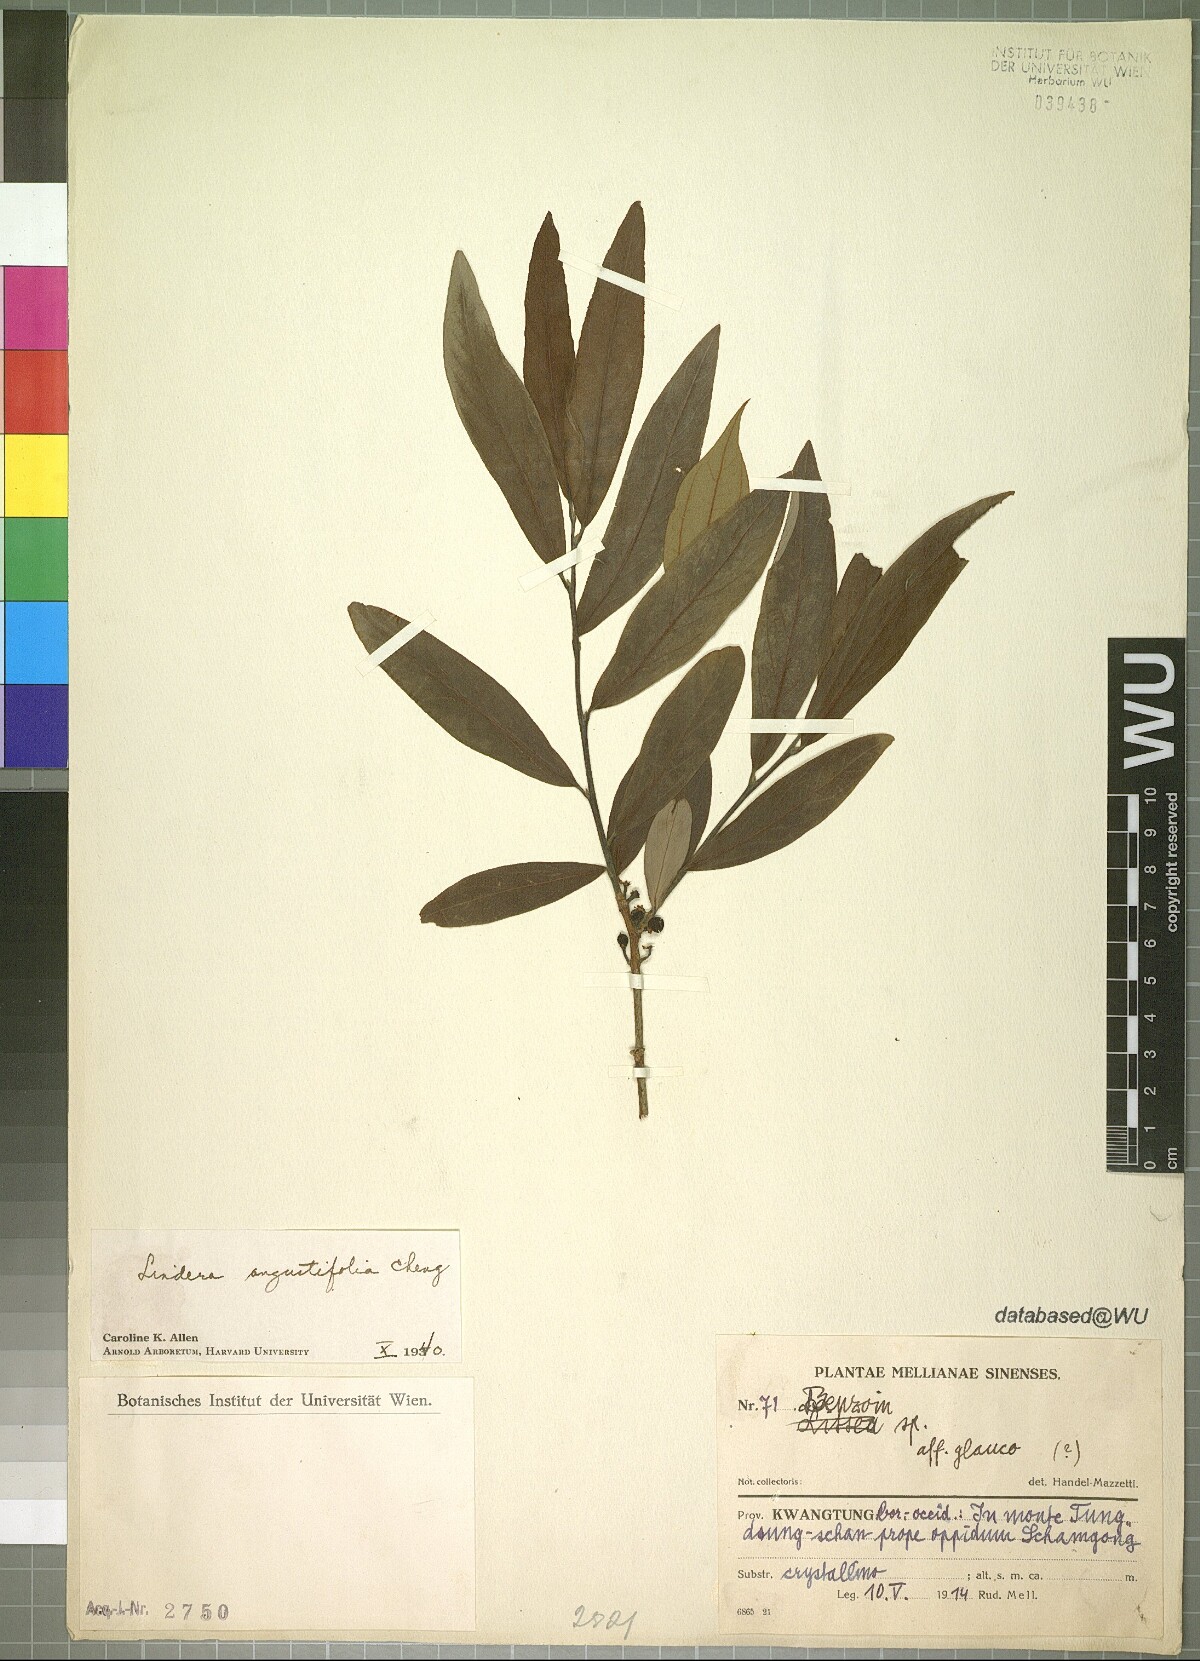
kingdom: Plantae
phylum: Tracheophyta
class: Magnoliopsida
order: Laurales
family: Lauraceae
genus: Lindera
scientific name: Lindera angustifolia
